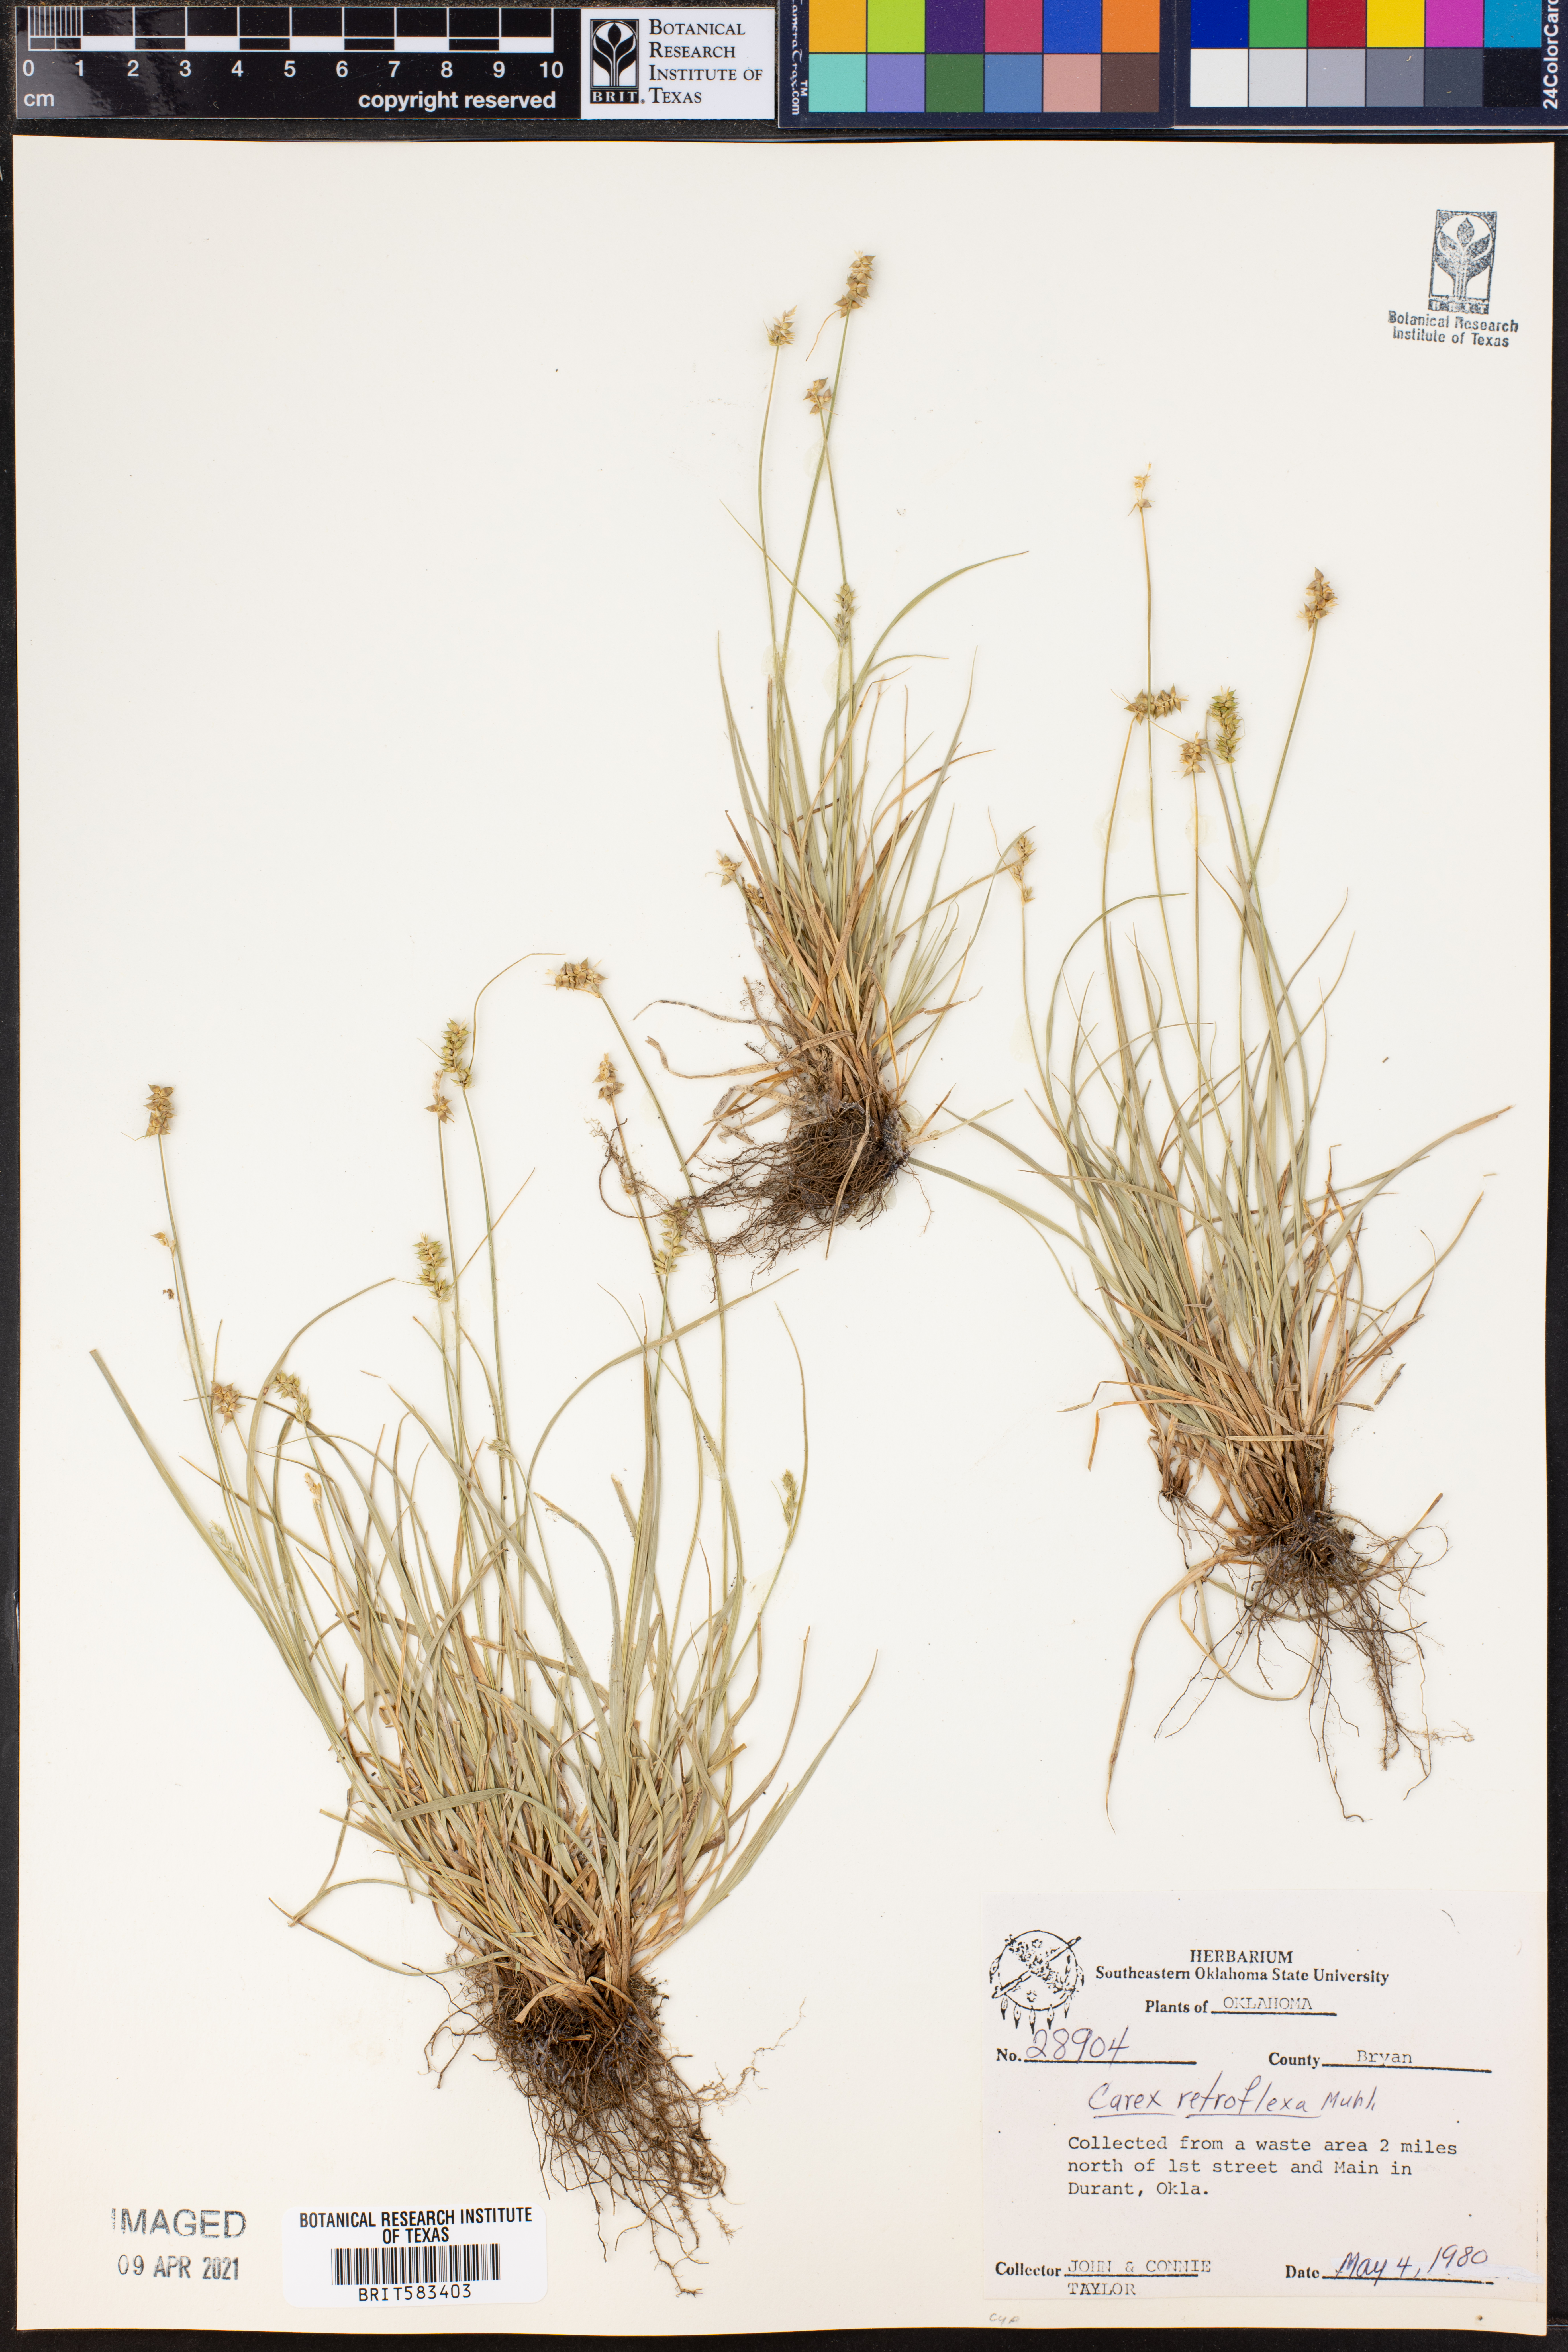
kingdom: Plantae
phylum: Tracheophyta
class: Liliopsida
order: Poales
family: Cyperaceae
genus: Carex
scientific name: Carex retroflexa
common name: Reflexed sedge
